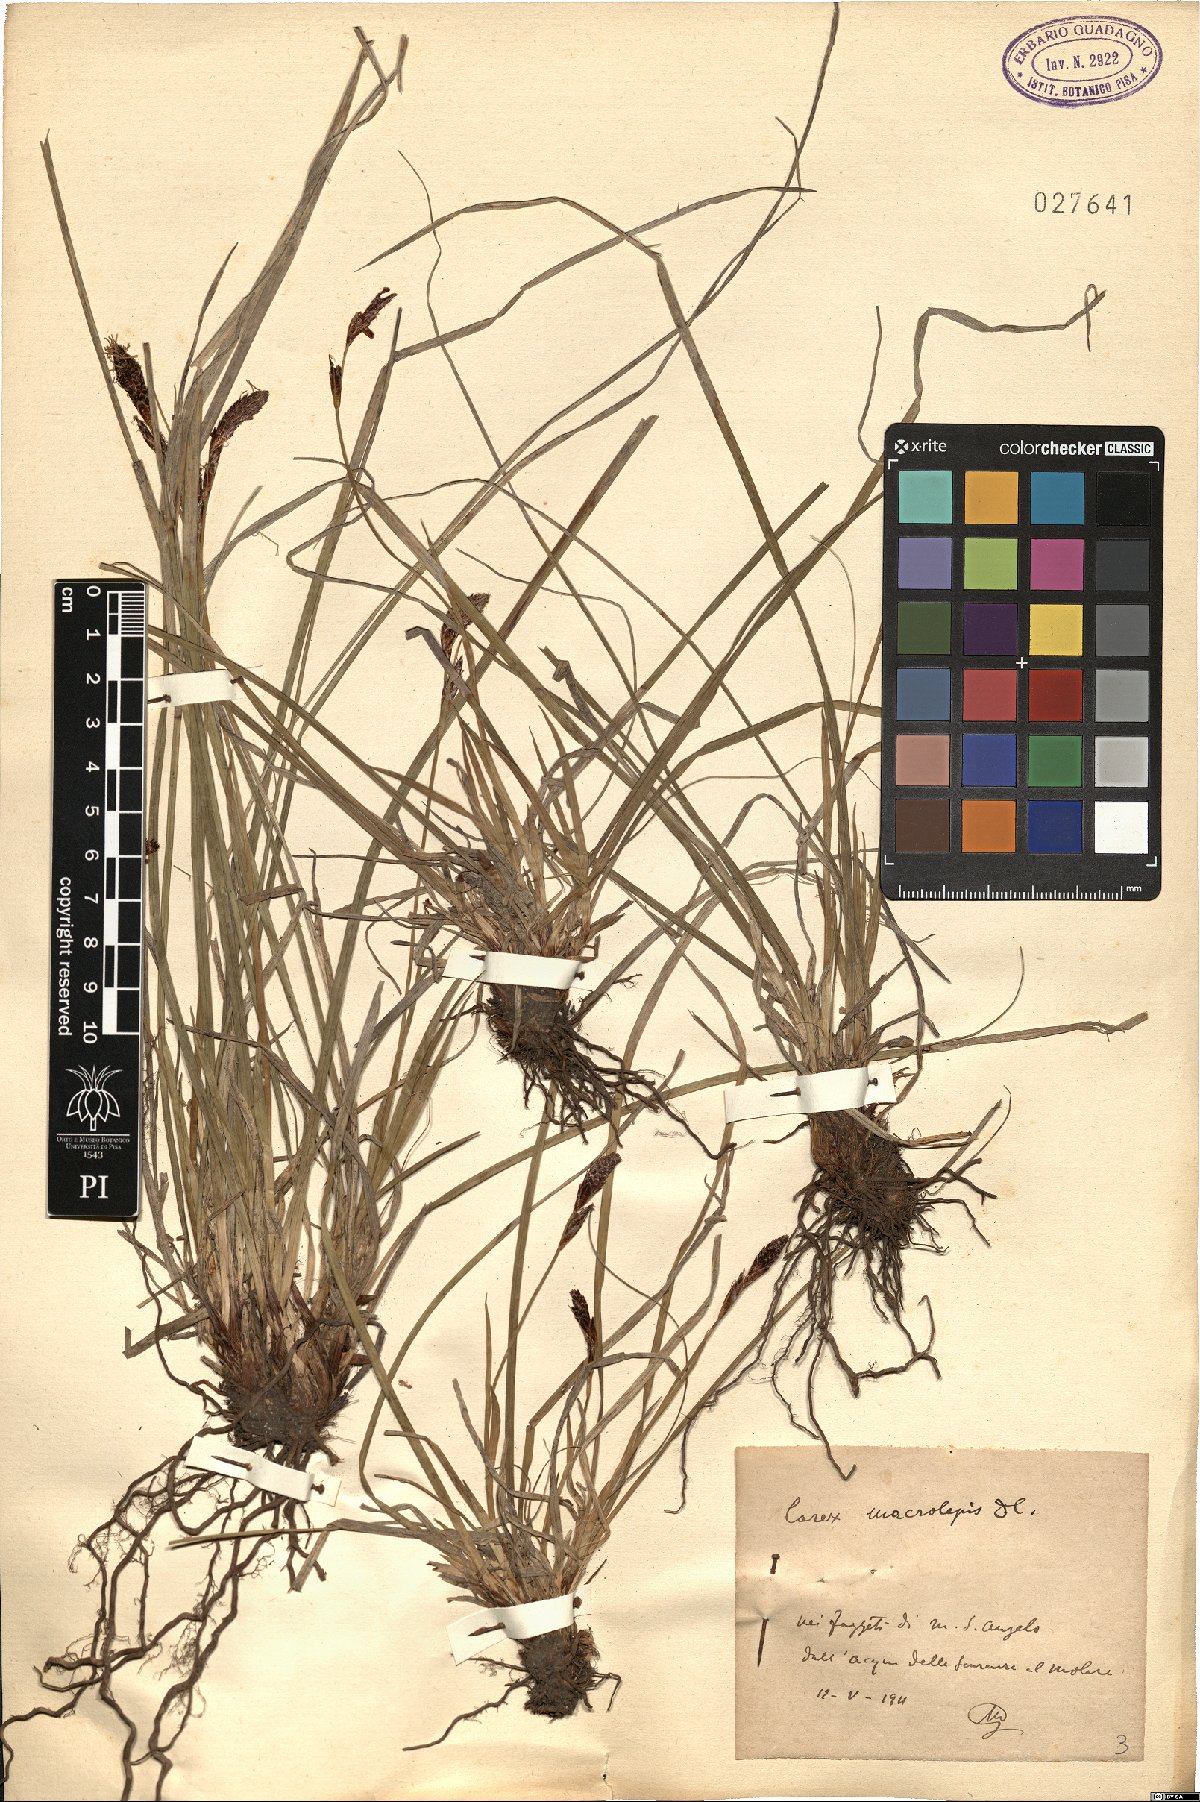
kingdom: Plantae
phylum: Tracheophyta
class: Liliopsida
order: Poales
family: Cyperaceae
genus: Carex
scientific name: Carex macrolepis
